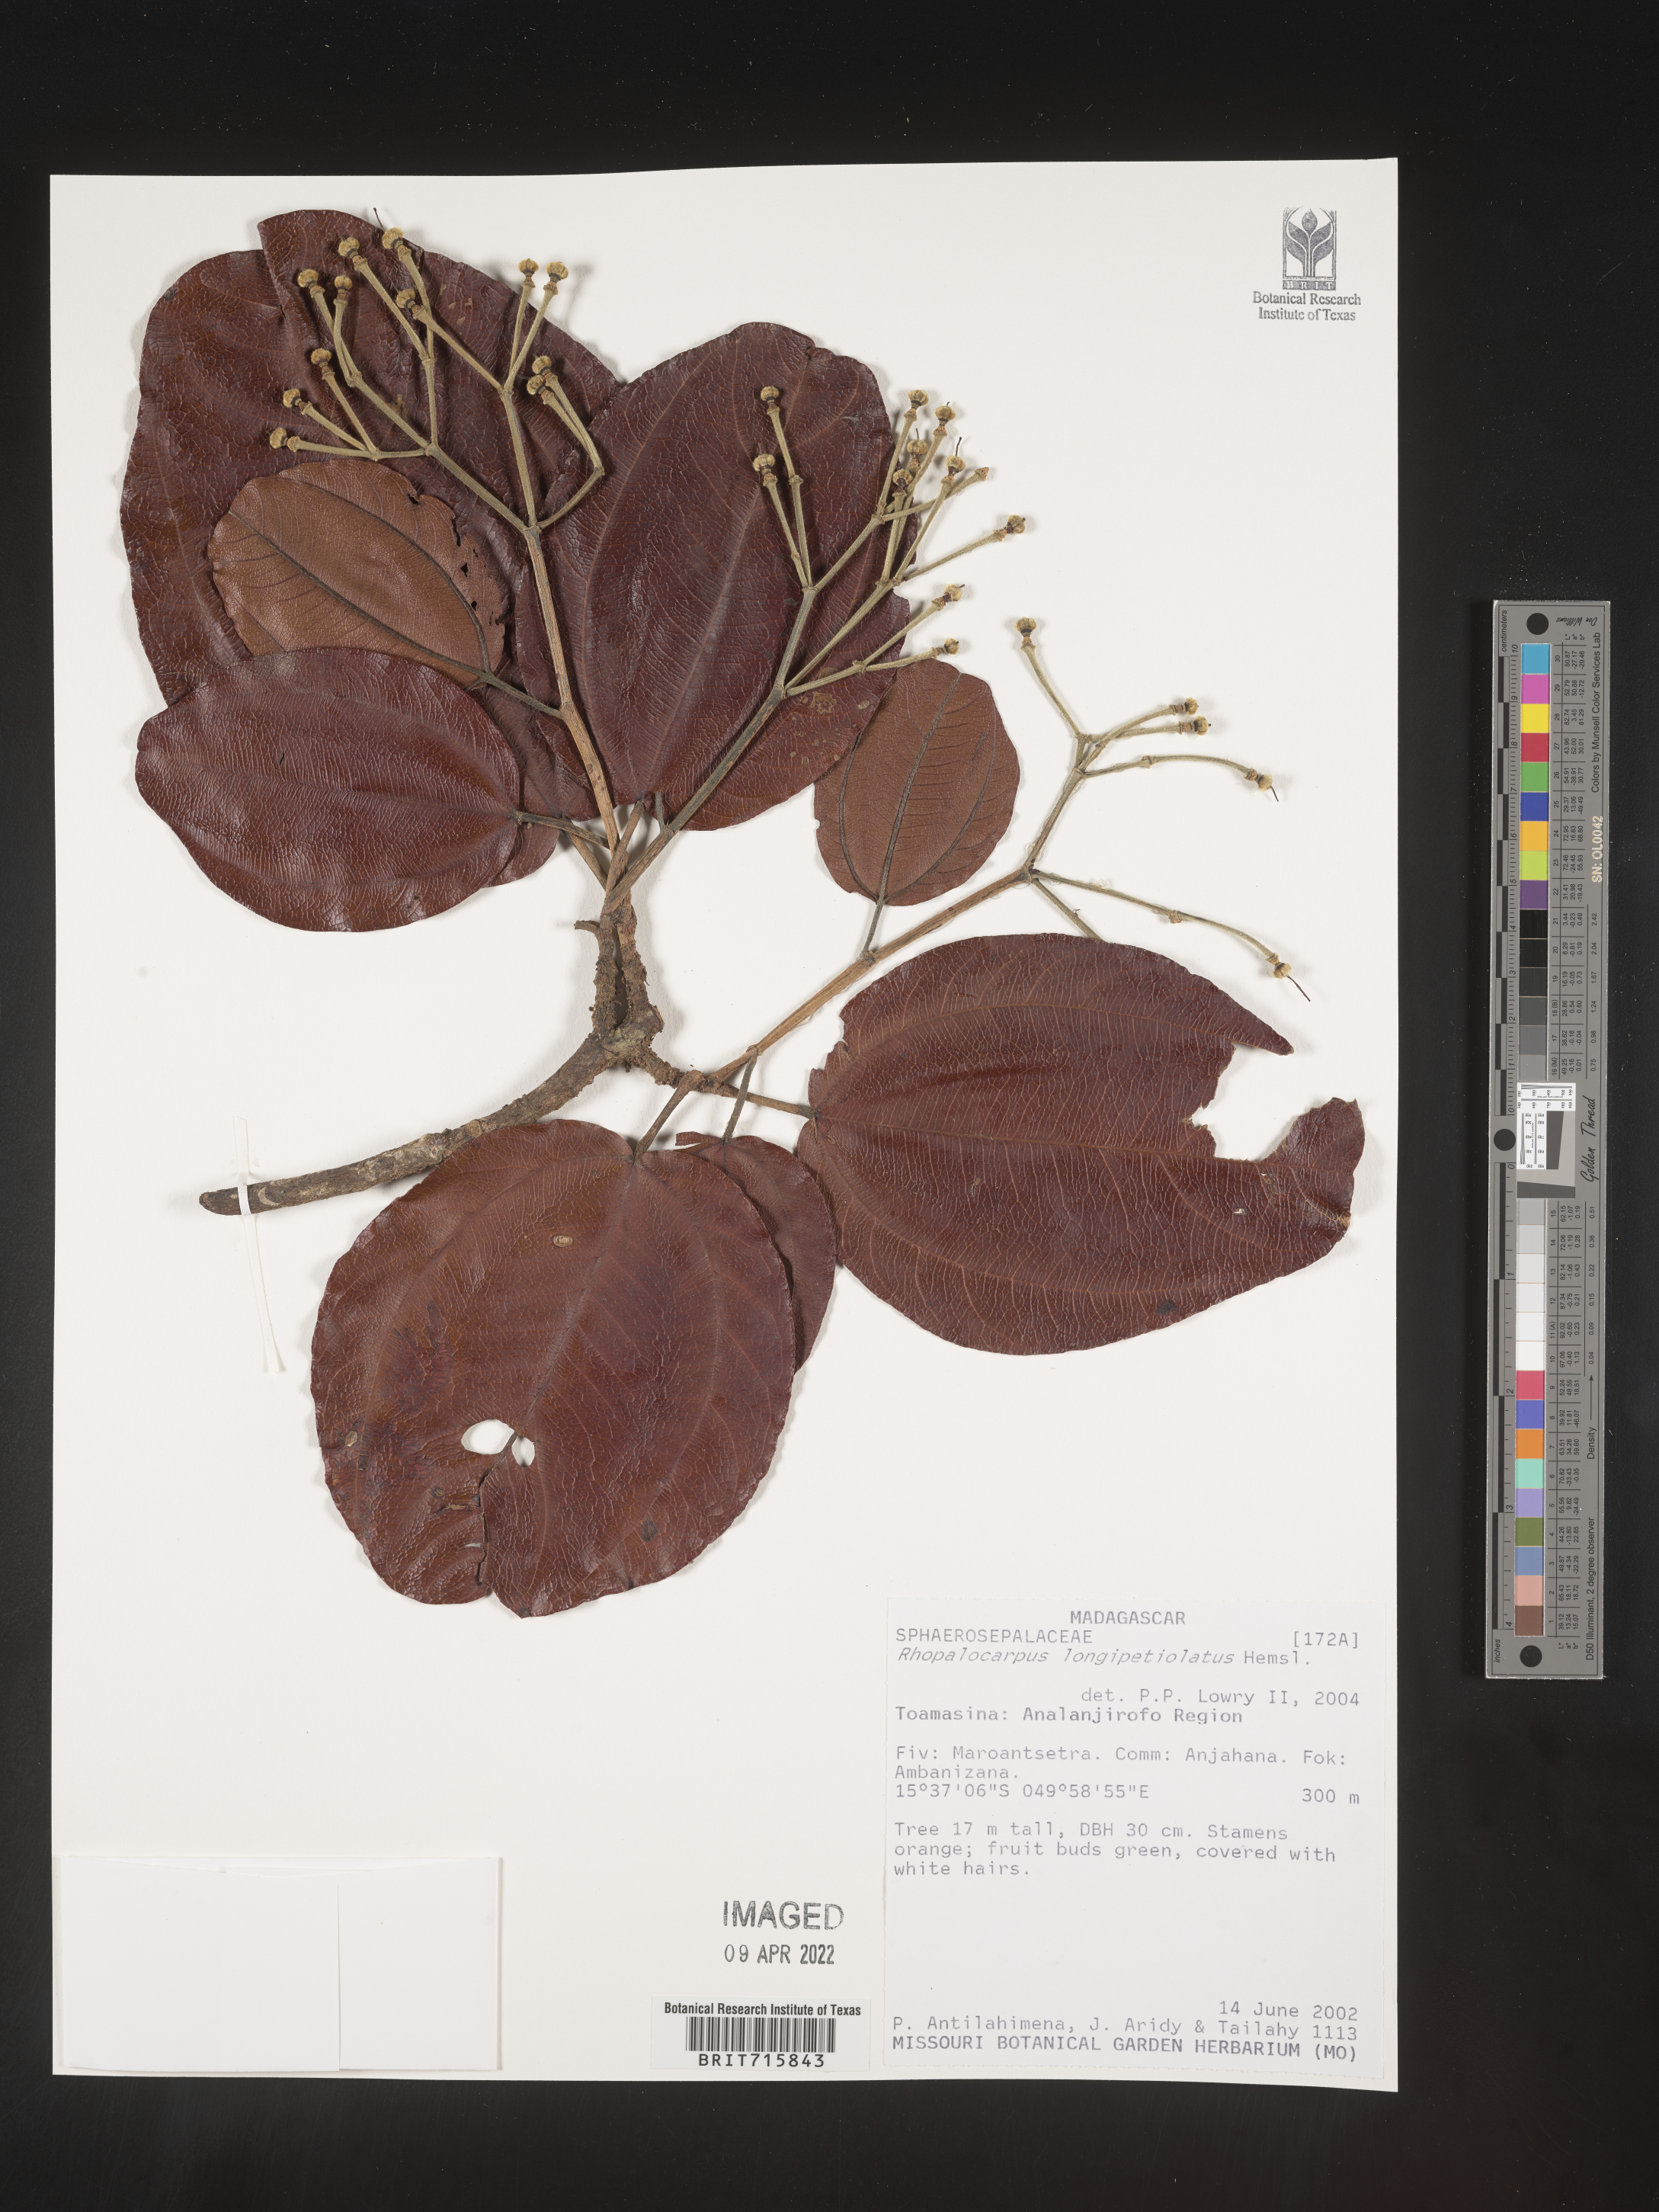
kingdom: Plantae
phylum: Tracheophyta
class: Magnoliopsida
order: Malvales
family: Sphaerosepalaceae
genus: Rhopalocarpus
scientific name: Rhopalocarpus
